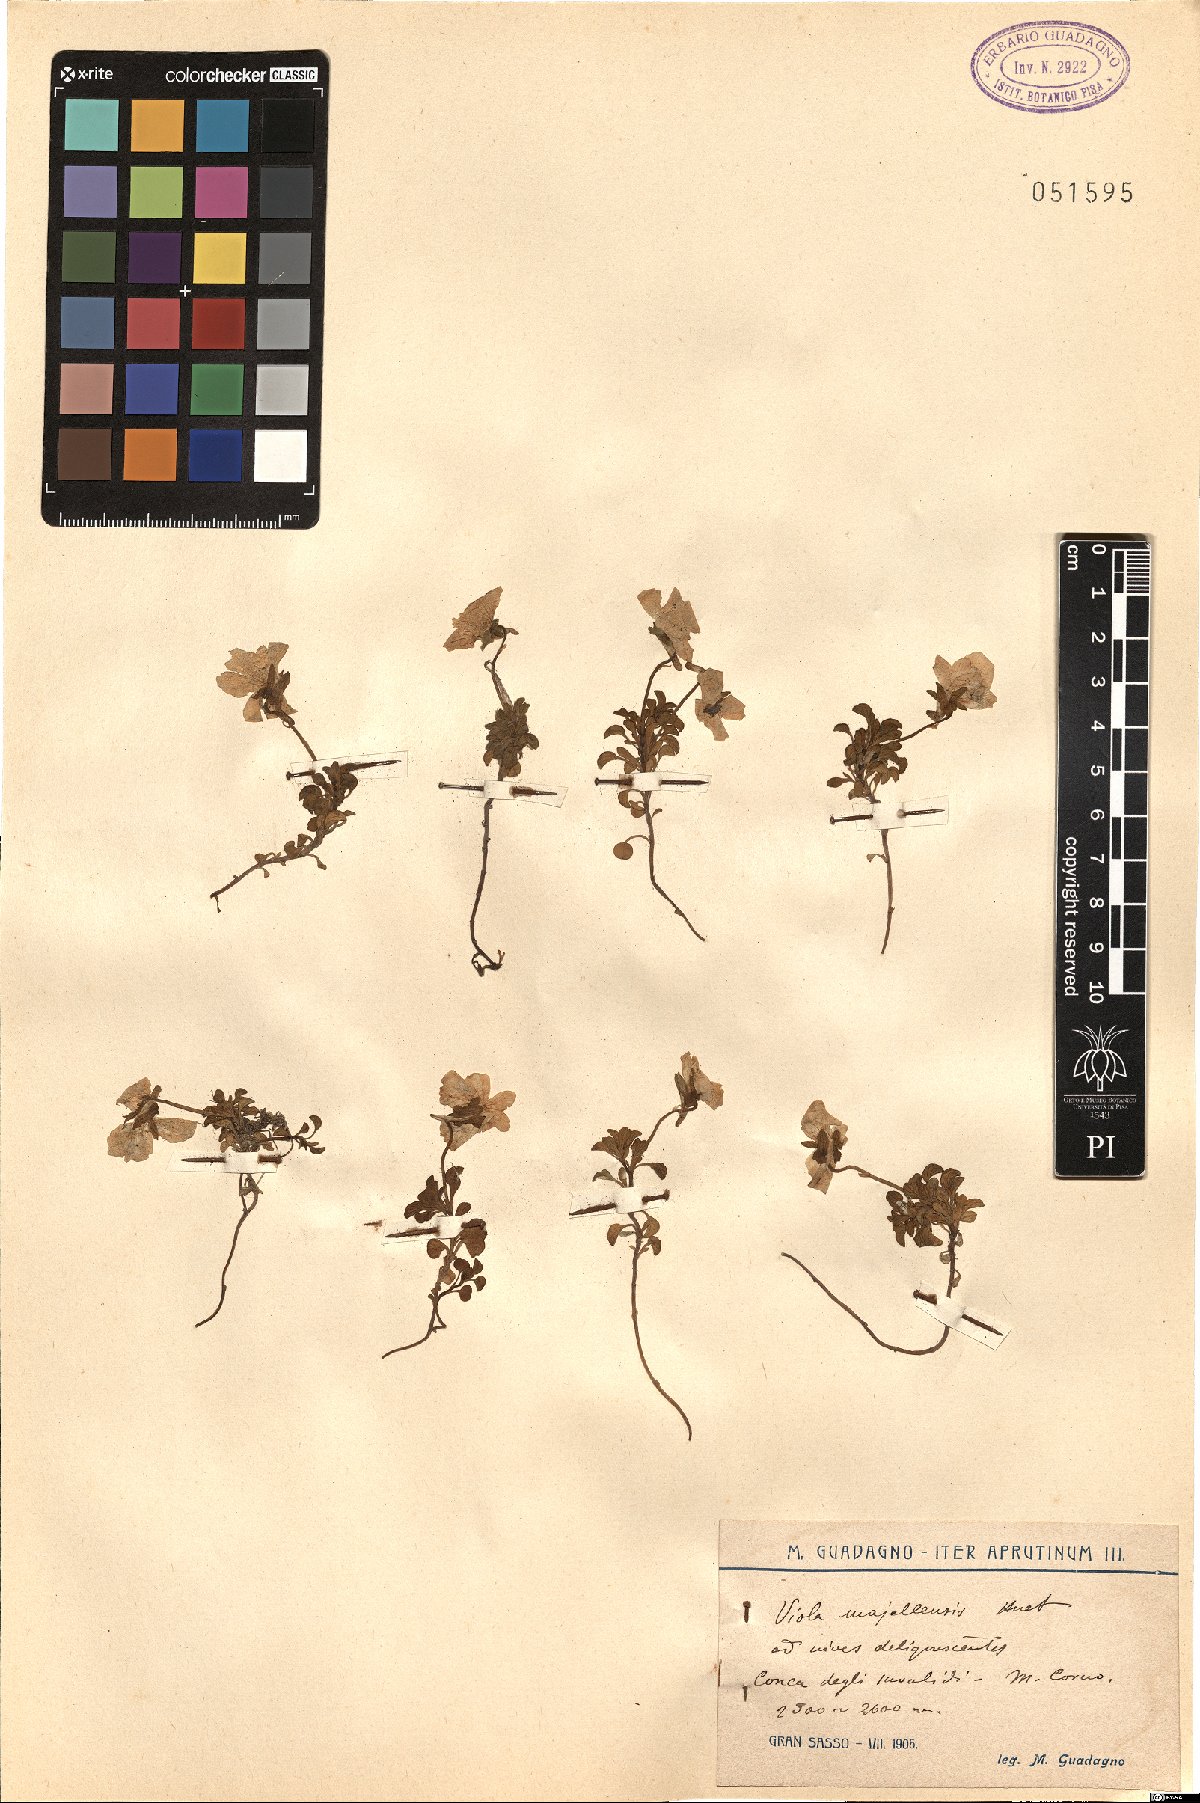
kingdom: Plantae
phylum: Tracheophyta
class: Magnoliopsida
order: Malpighiales
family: Violaceae
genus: Viola
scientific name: Viola magellensis
